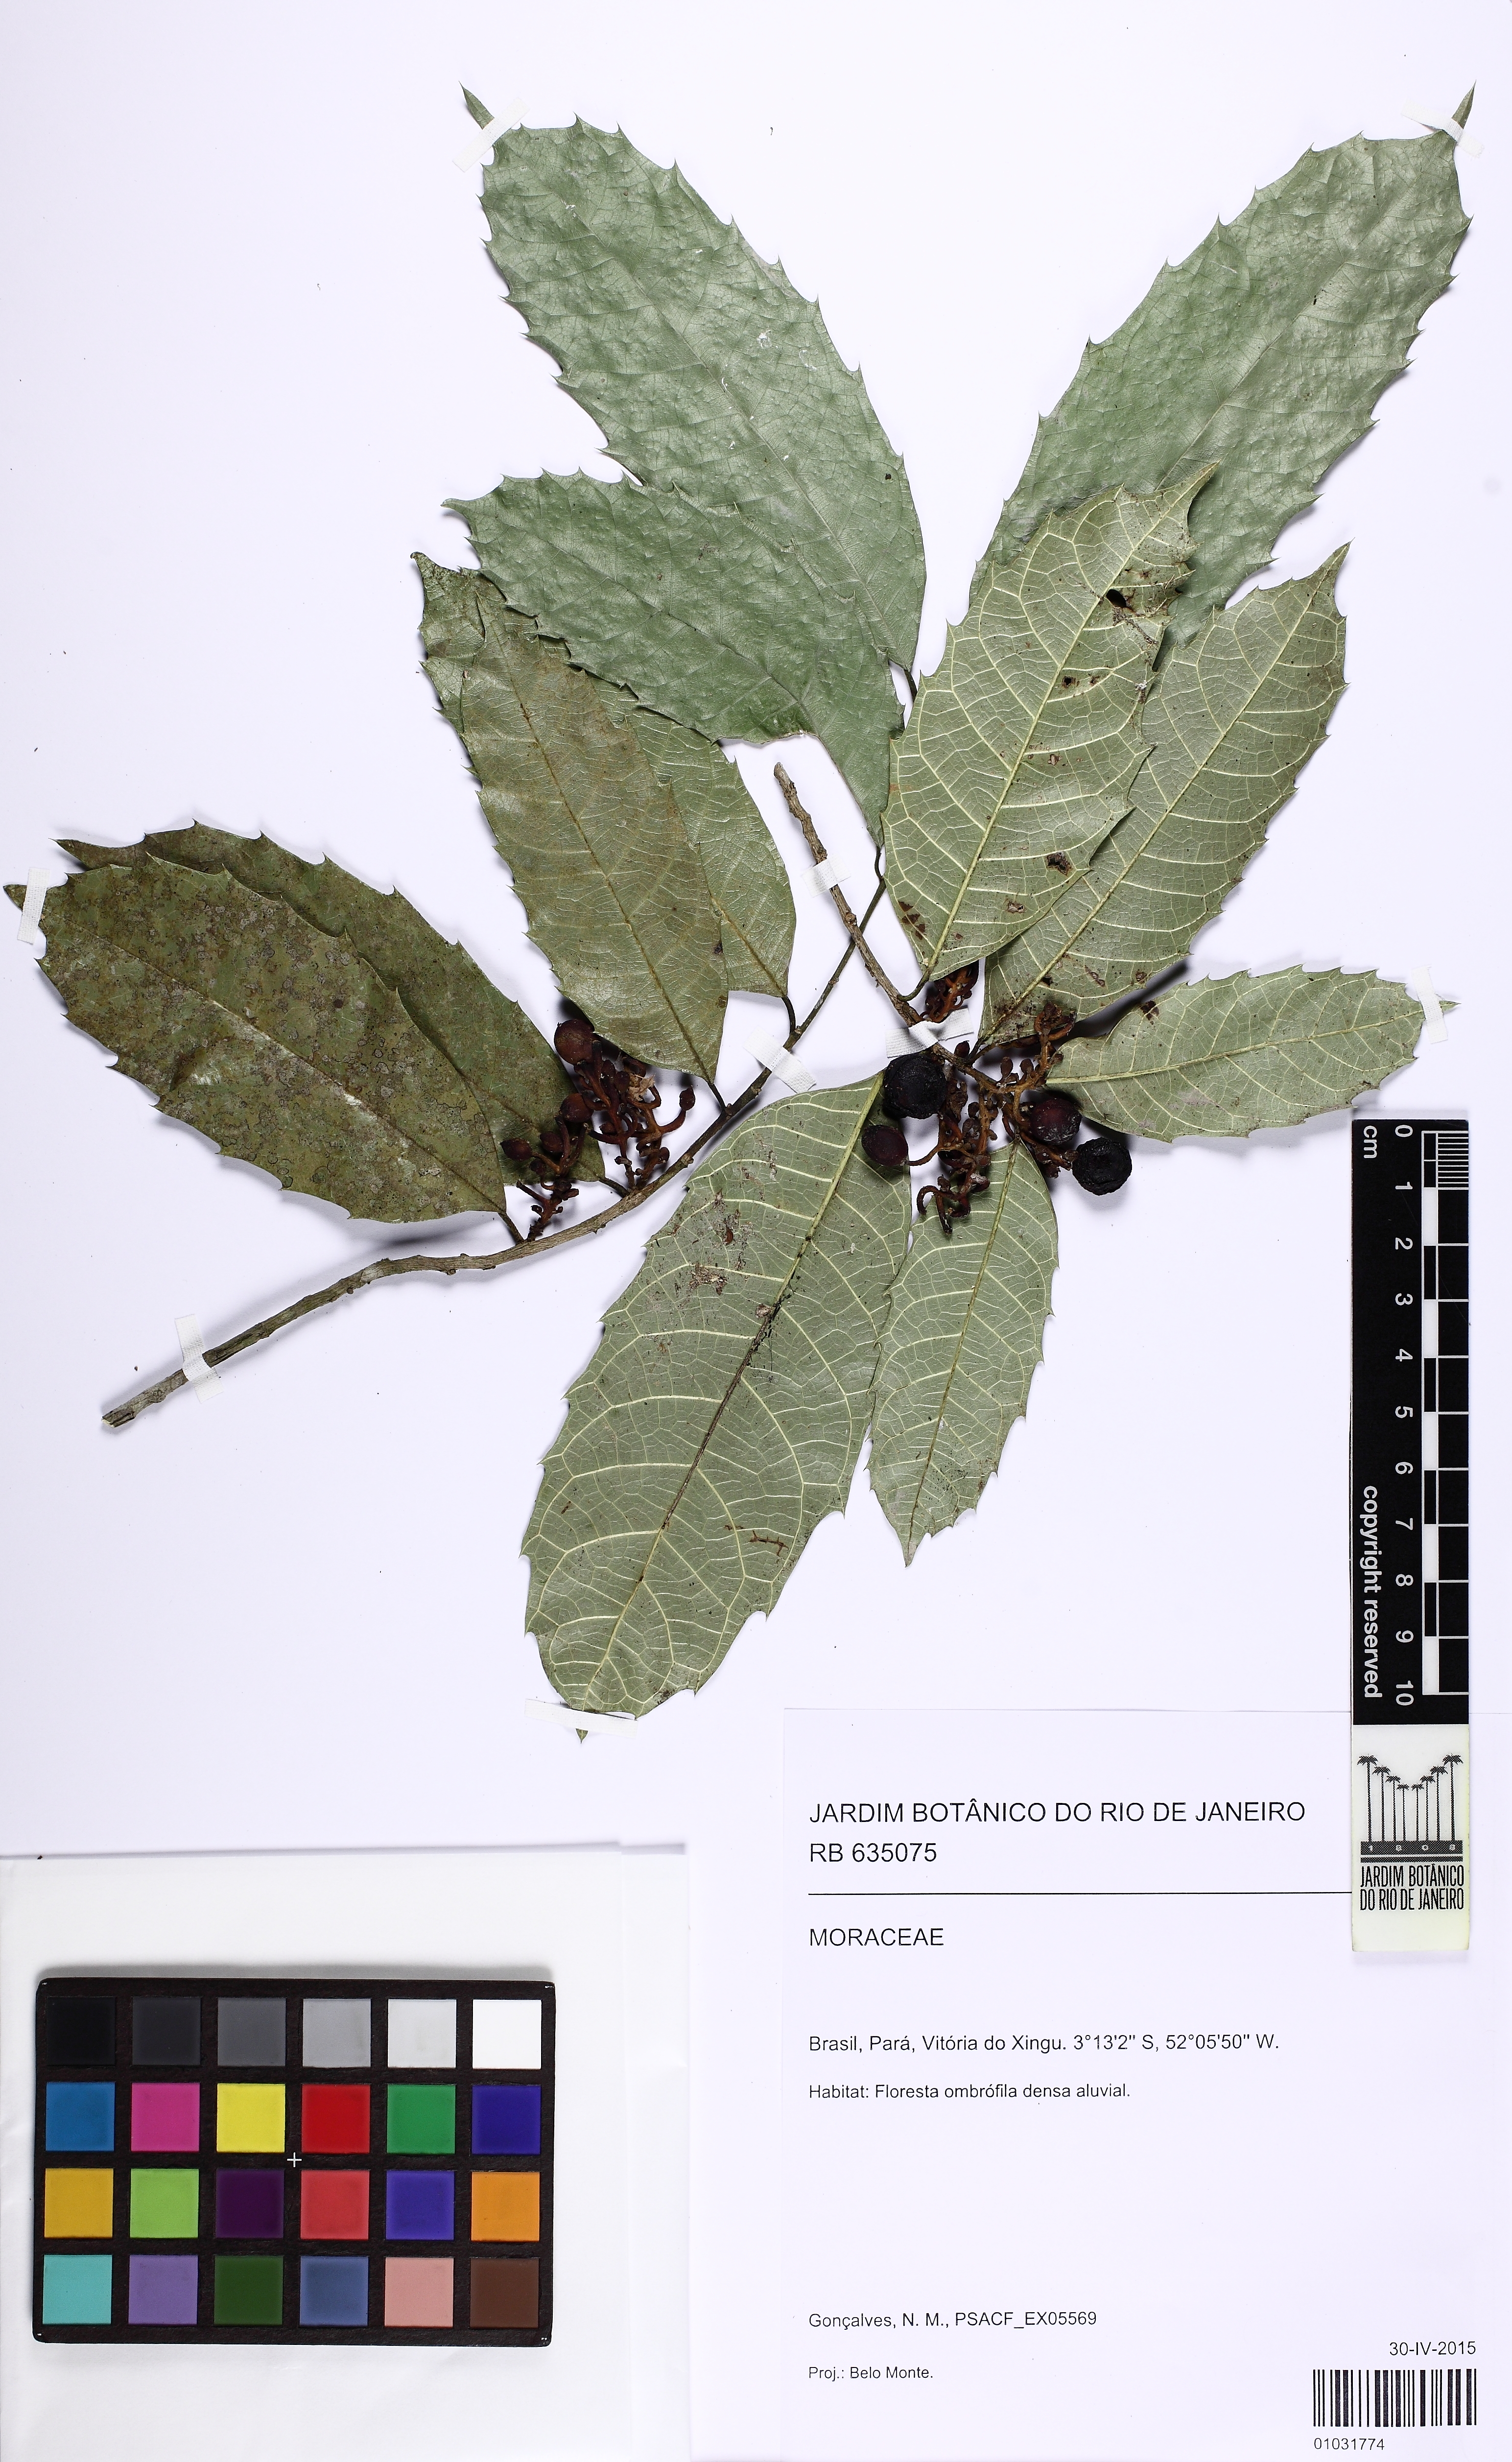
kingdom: Plantae
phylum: Tracheophyta
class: Magnoliopsida
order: Rosales
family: Moraceae
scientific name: Moraceae
